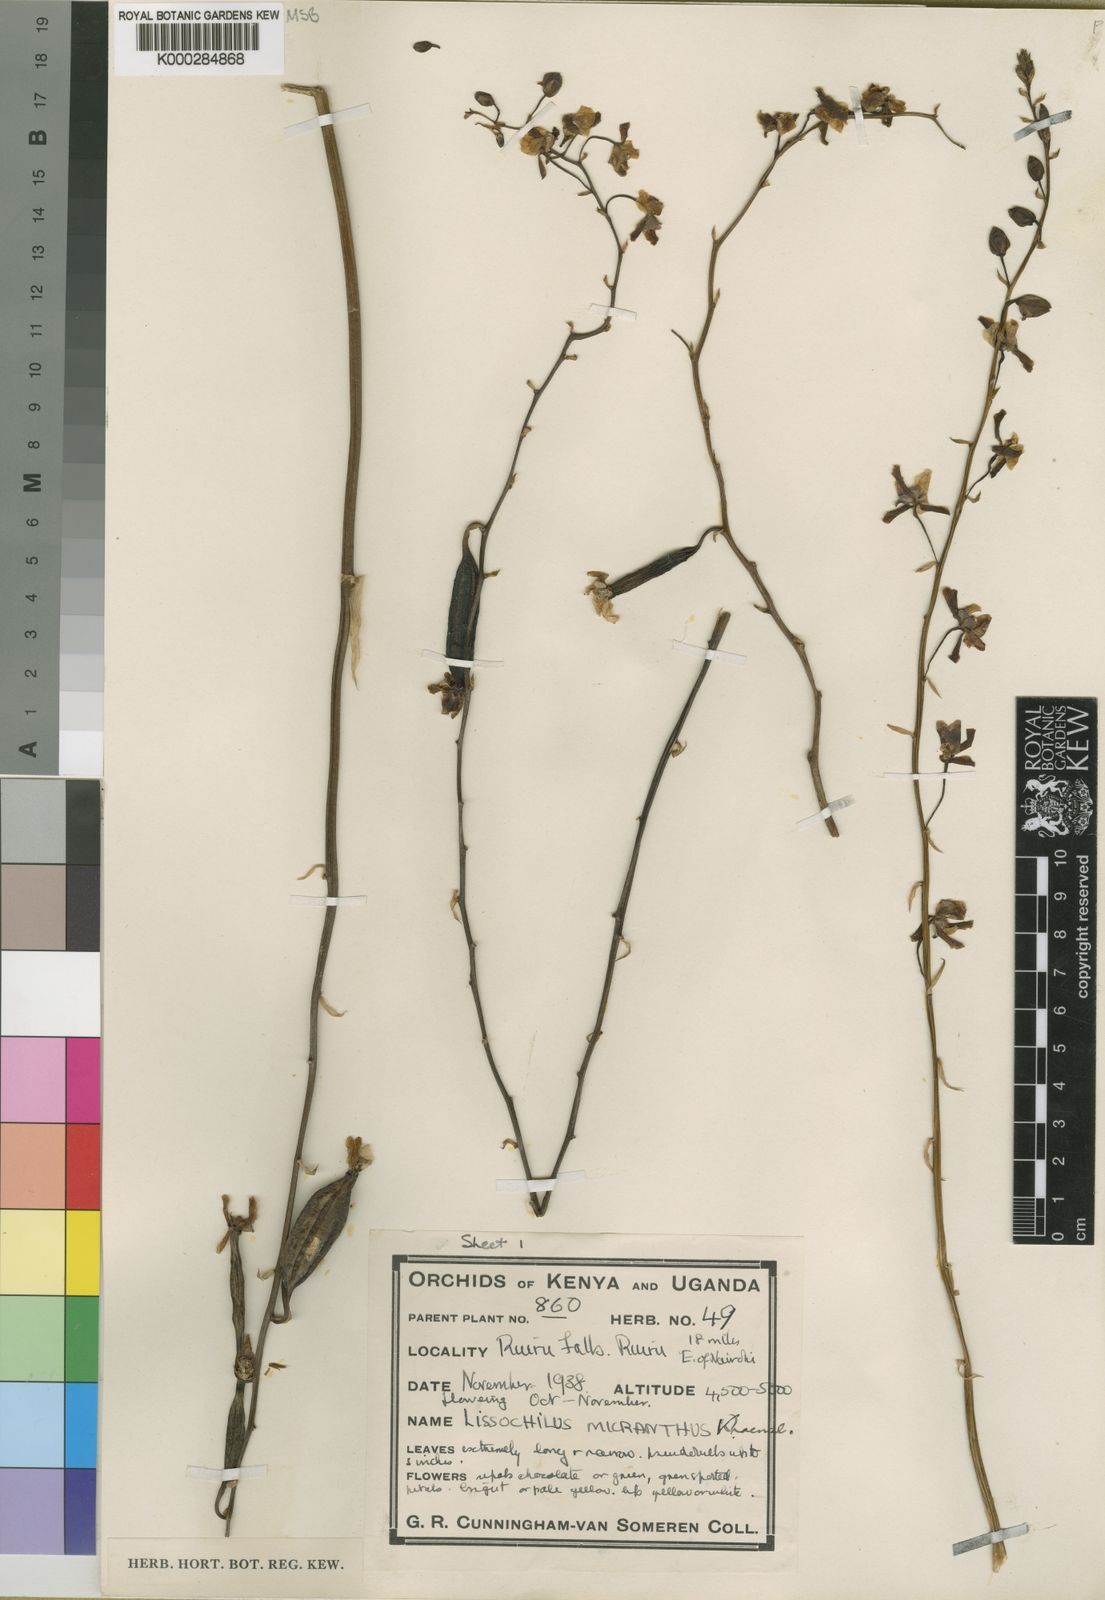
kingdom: Plantae
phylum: Tracheophyta
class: Liliopsida
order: Asparagales
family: Orchidaceae
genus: Eulophia
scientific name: Eulophia streptopetala
